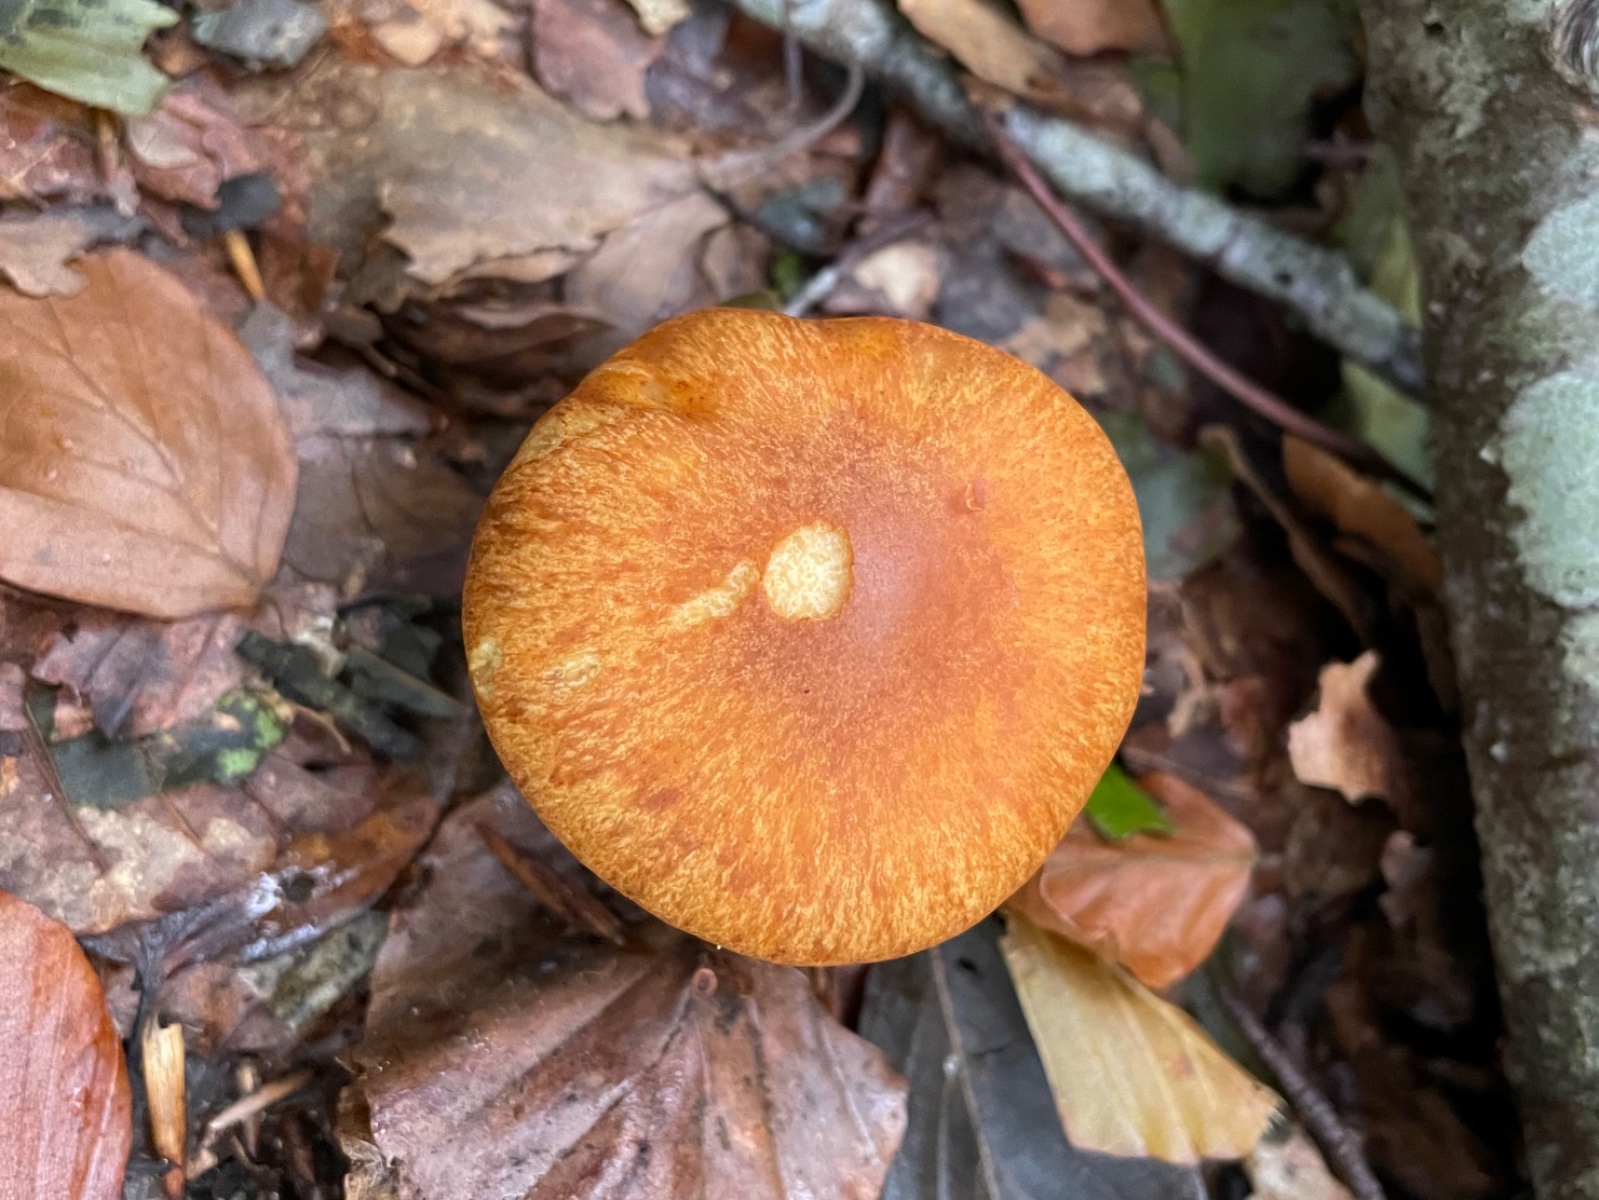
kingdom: Fungi
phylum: Basidiomycota
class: Agaricomycetes
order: Agaricales
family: Hymenogastraceae
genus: Gymnopilus
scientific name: Gymnopilus spectabilis
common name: fibret flammehat
